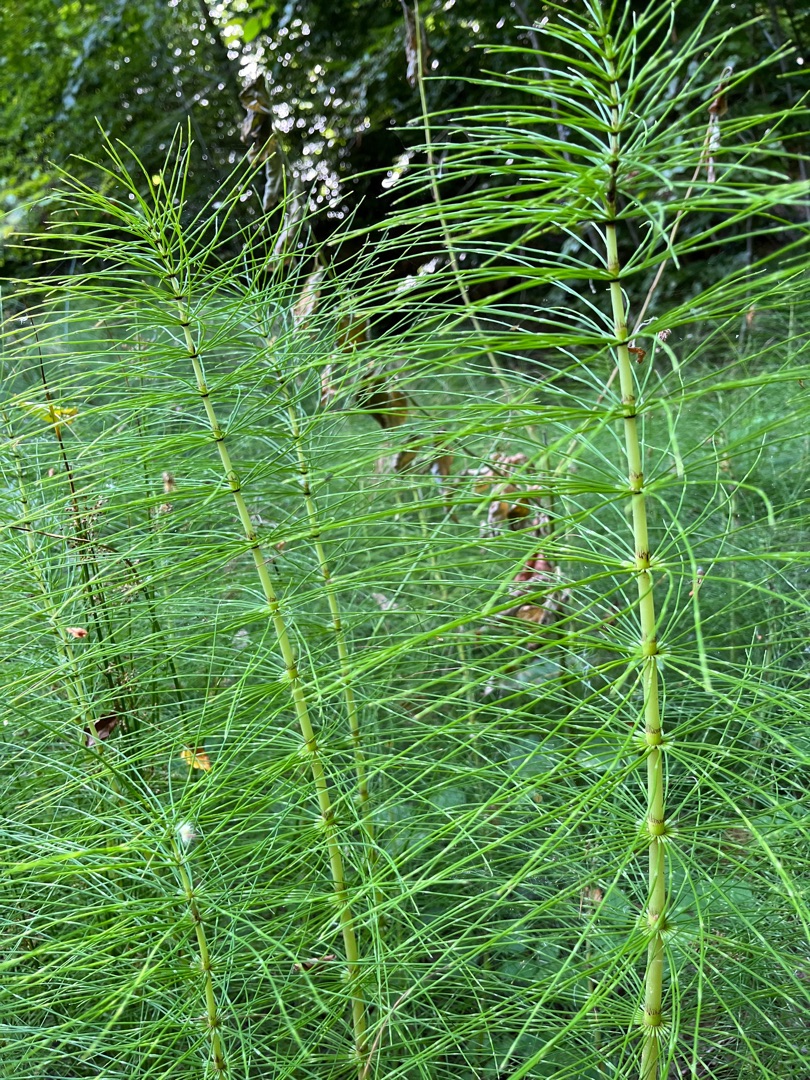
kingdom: Plantae
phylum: Tracheophyta
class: Polypodiopsida
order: Equisetales
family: Equisetaceae
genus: Equisetum
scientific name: Equisetum telmateia
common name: Elfenbens-padderok
